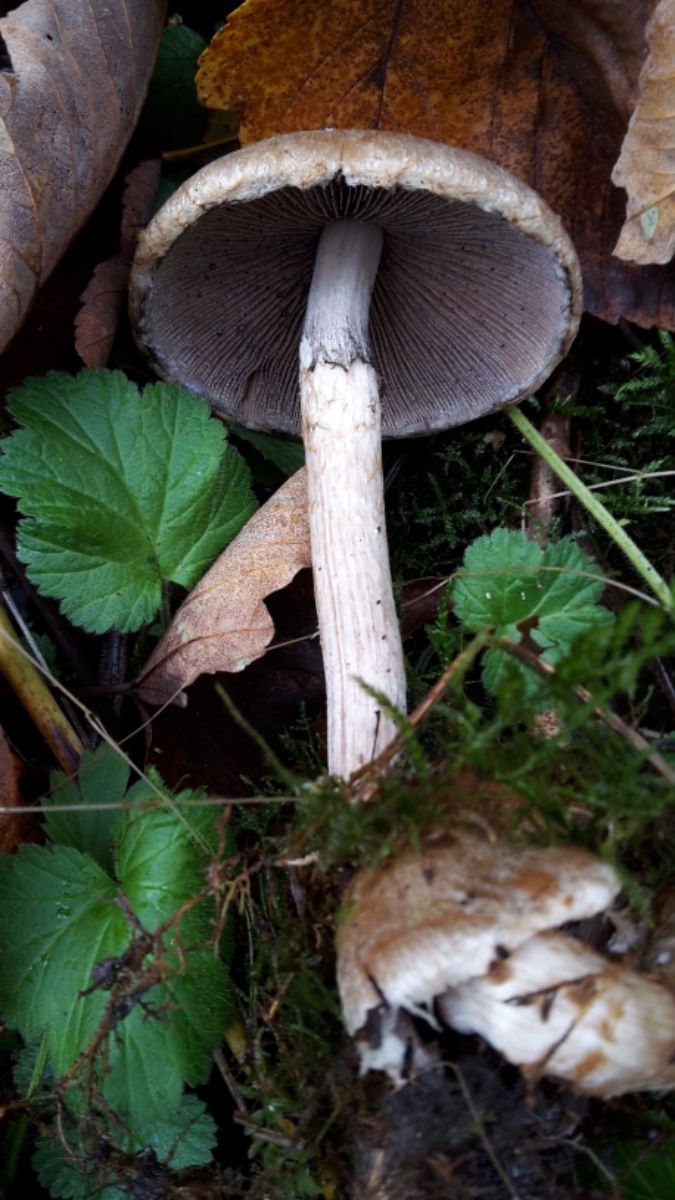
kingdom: Fungi
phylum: Basidiomycota
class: Agaricomycetes
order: Agaricales
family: Psathyrellaceae
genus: Lacrymaria
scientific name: Lacrymaria lacrymabunda
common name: grædende mørkhat
